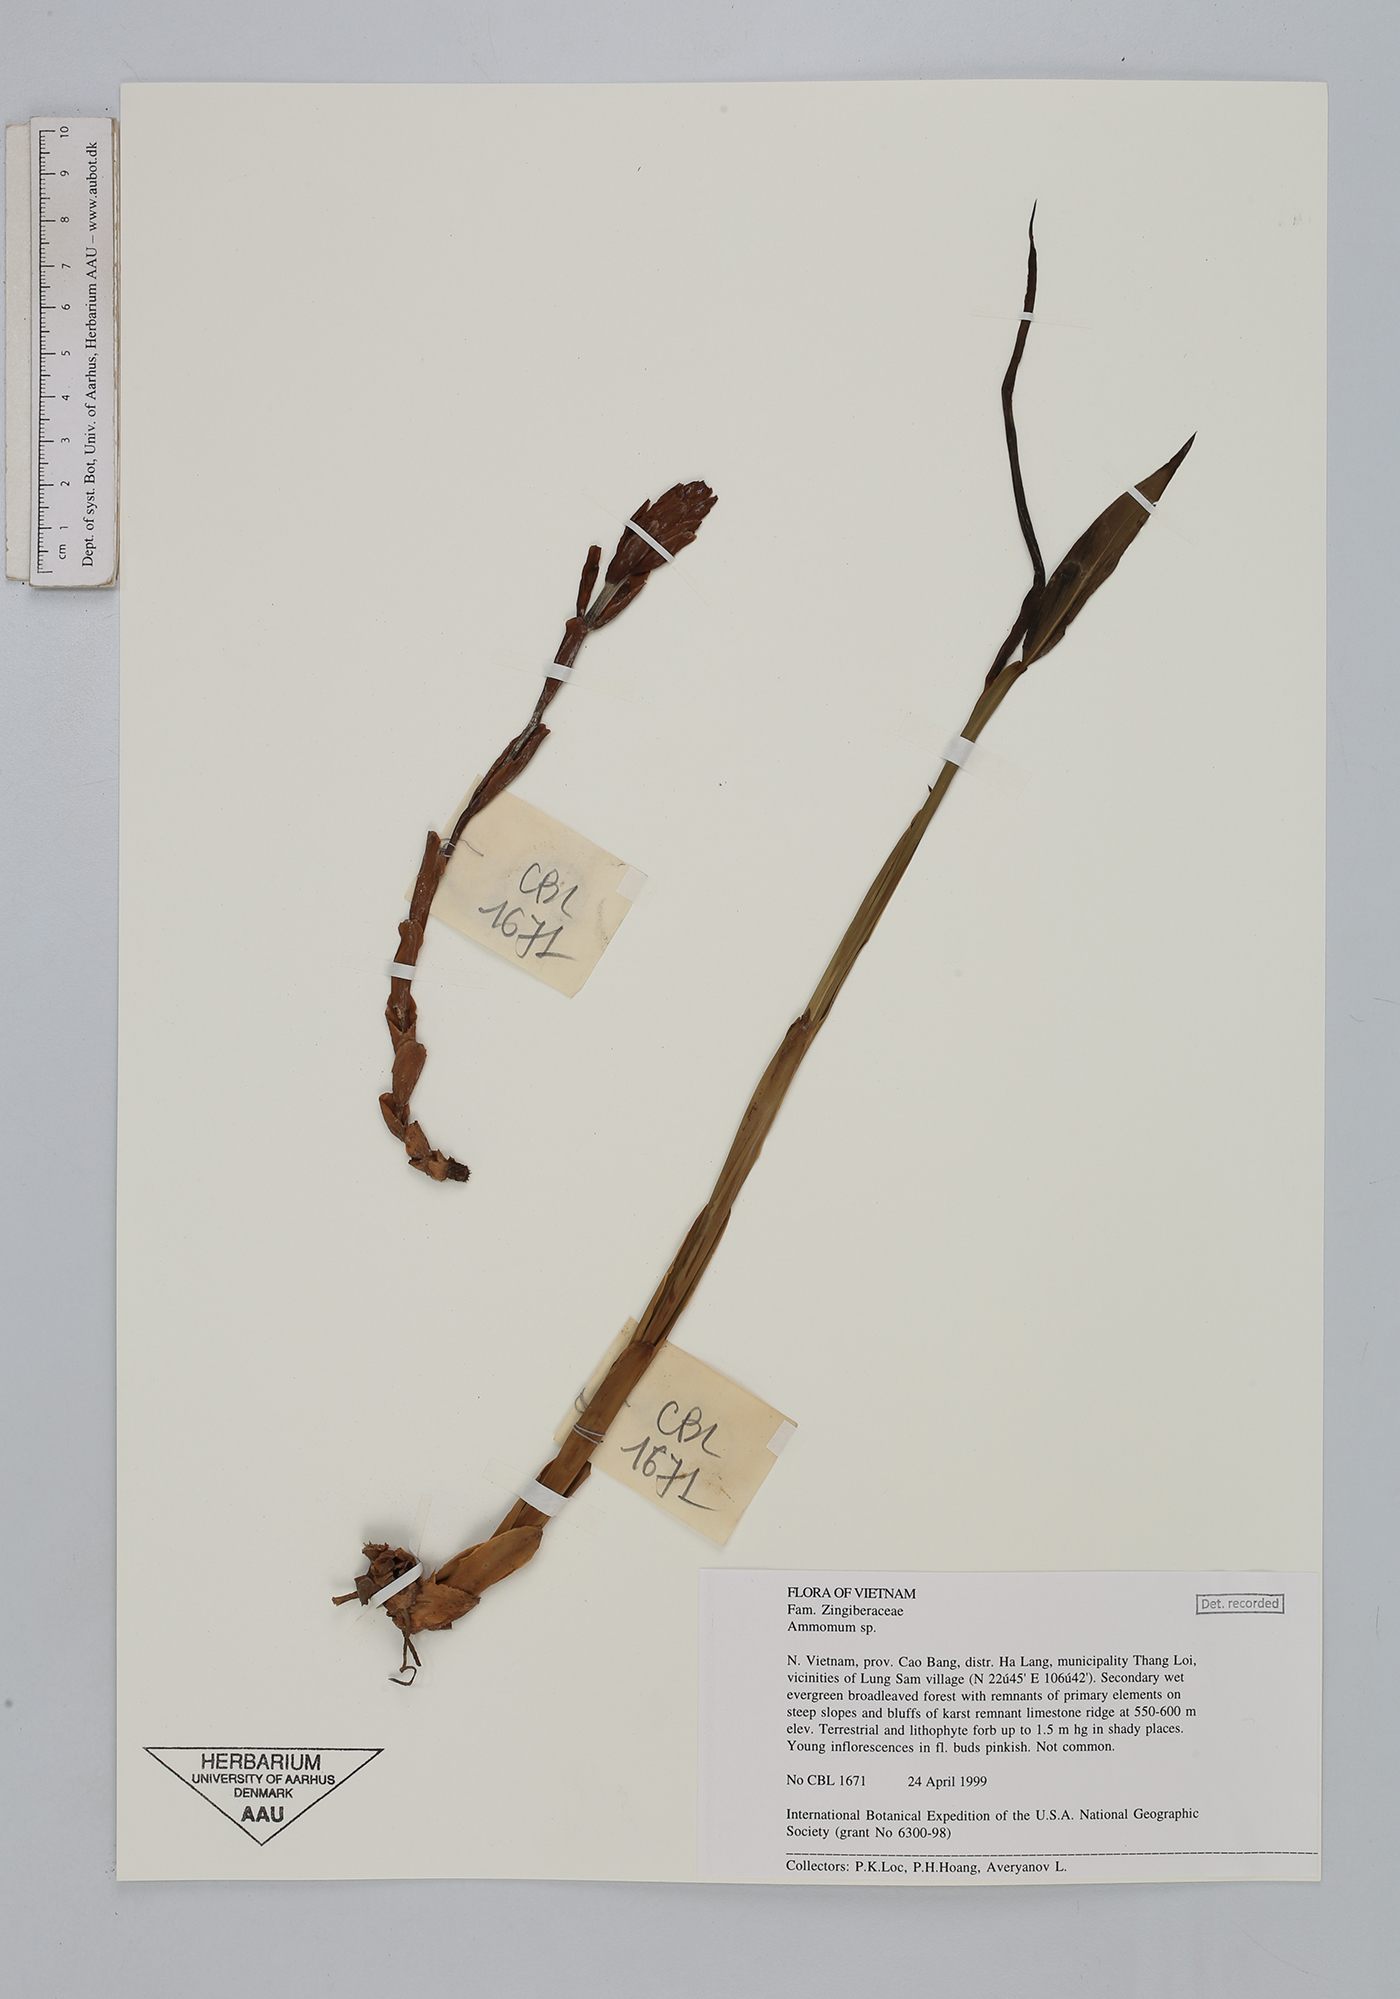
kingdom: Plantae
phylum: Tracheophyta
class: Liliopsida
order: Zingiberales
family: Zingiberaceae
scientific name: Zingiberaceae
